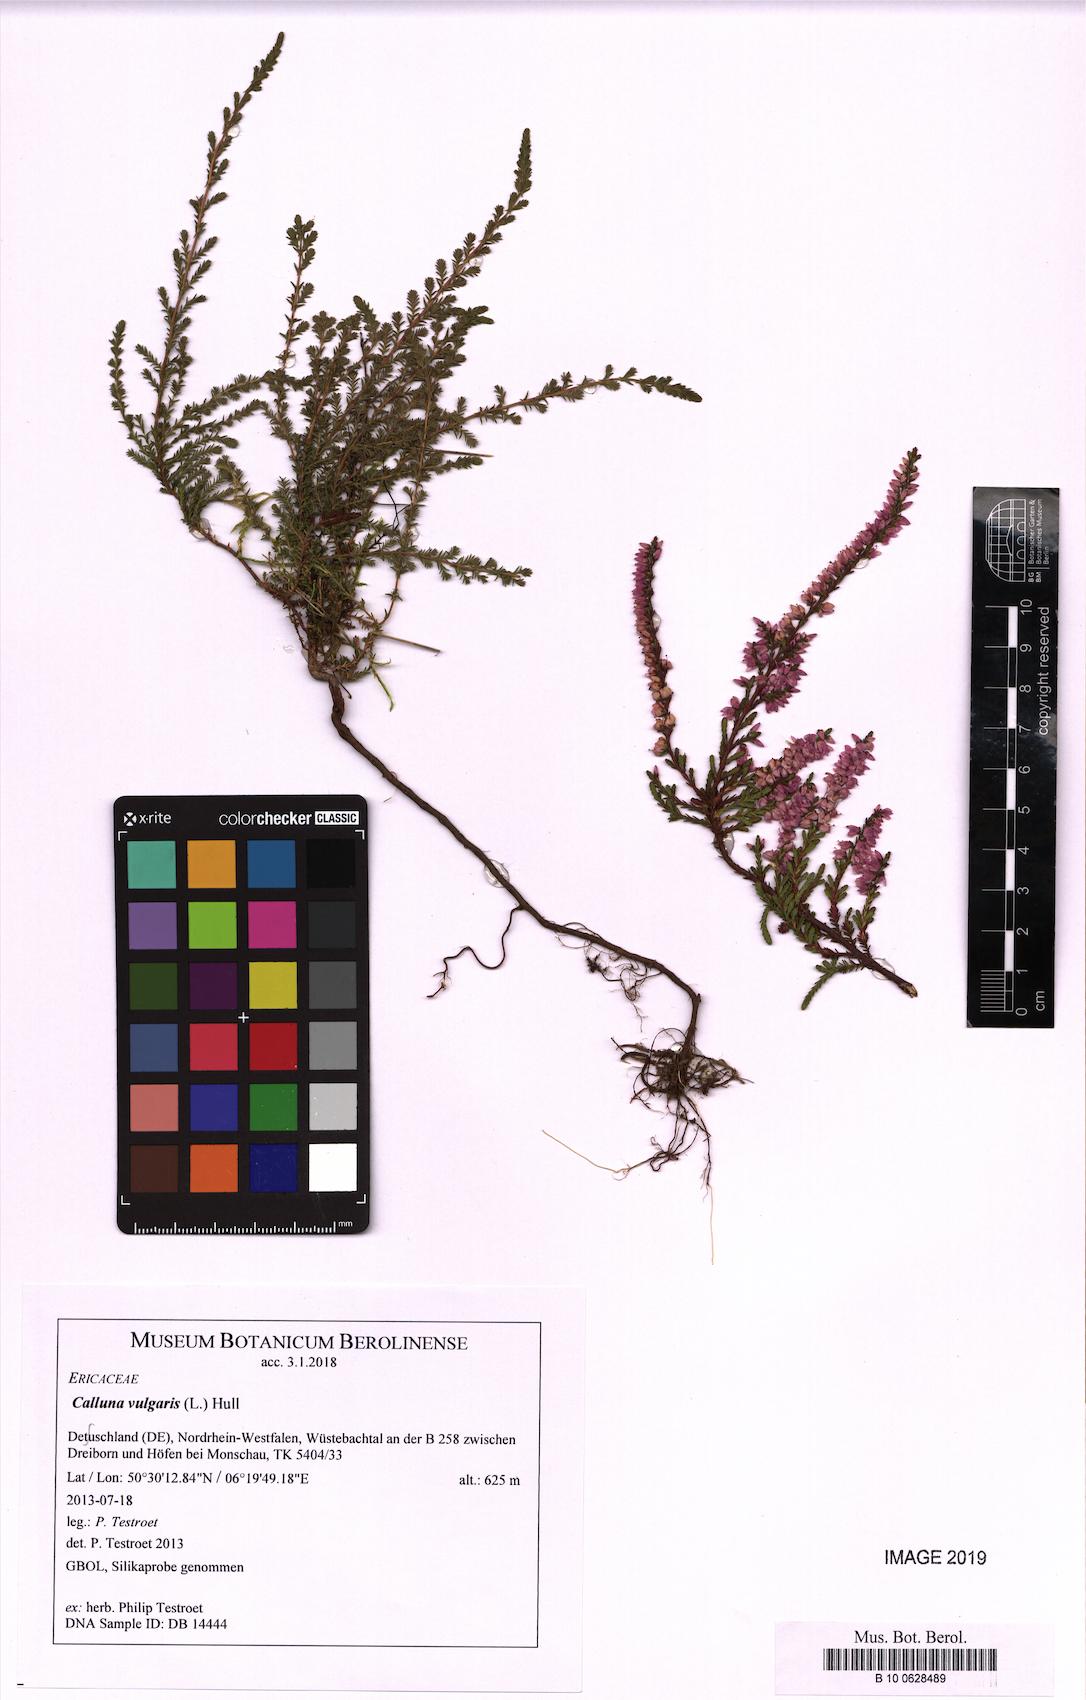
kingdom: Plantae
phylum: Tracheophyta
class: Magnoliopsida
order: Ericales
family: Ericaceae
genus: Calluna
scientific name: Calluna vulgaris
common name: Heather
